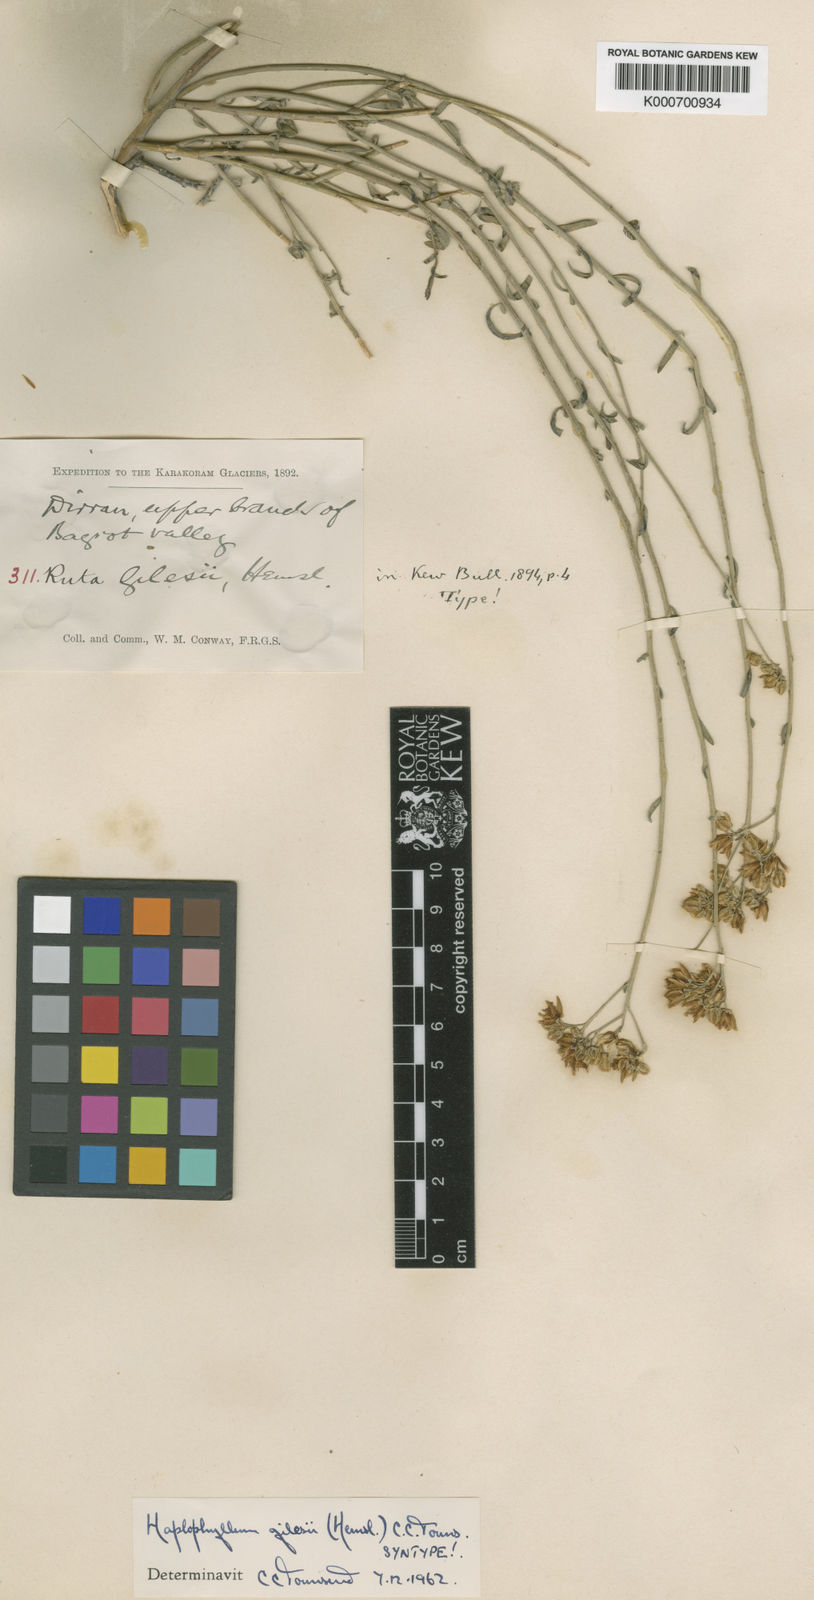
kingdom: Plantae
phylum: Tracheophyta
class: Magnoliopsida
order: Sapindales
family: Rutaceae
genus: Haplophyllum
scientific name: Haplophyllum gilesii
